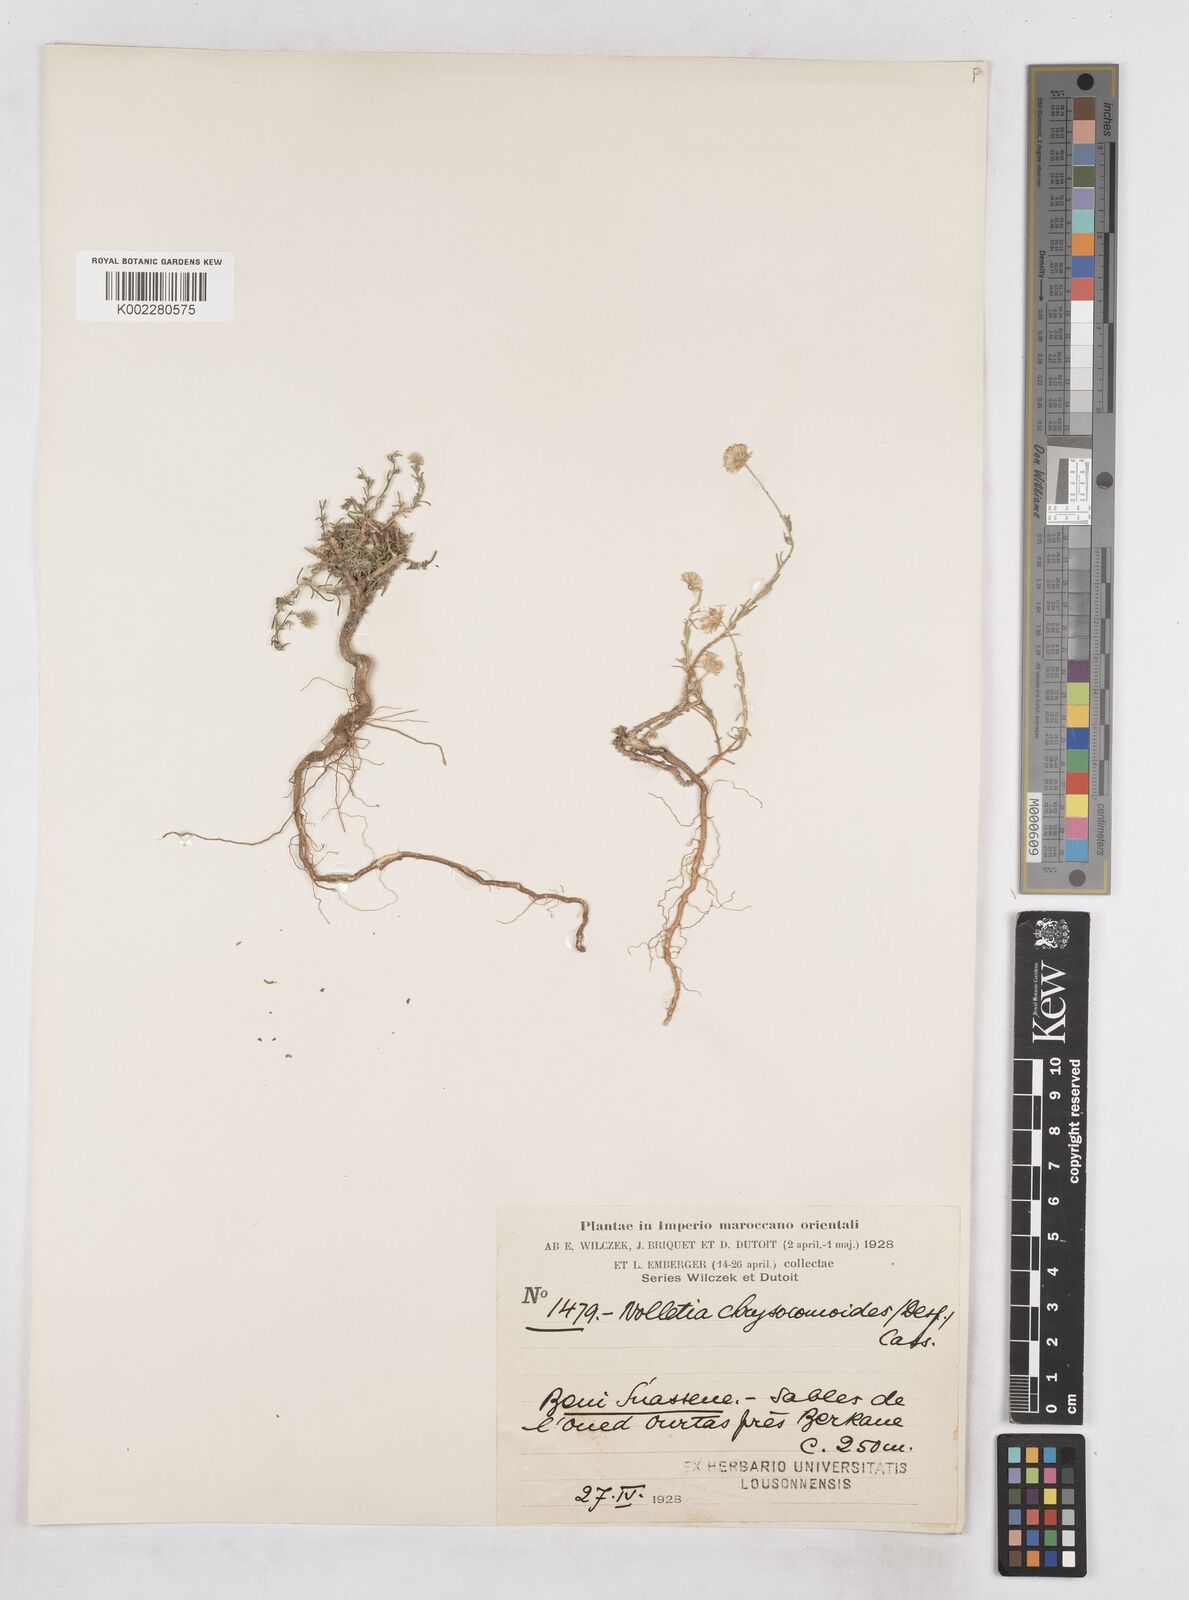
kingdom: Plantae
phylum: Tracheophyta
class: Magnoliopsida
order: Asterales
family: Asteraceae
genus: Nolletia
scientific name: Nolletia chrysocomoides
